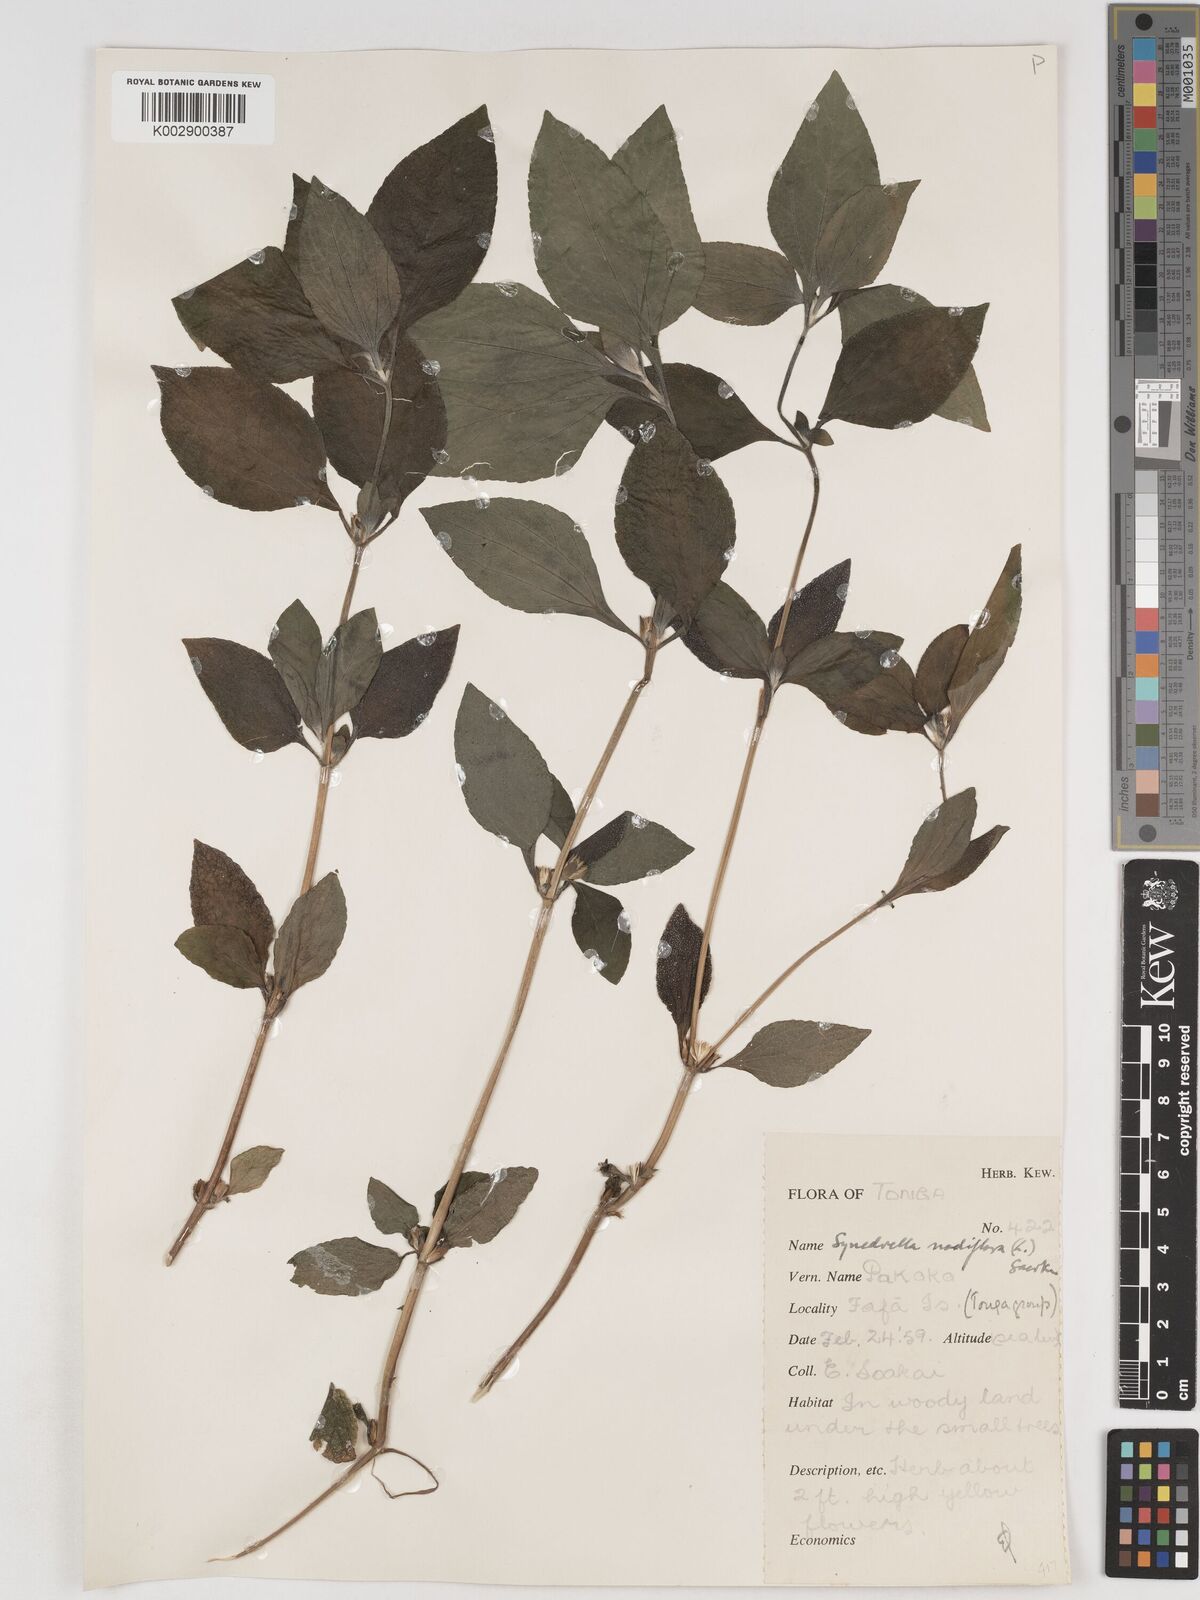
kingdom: Plantae
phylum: Tracheophyta
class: Magnoliopsida
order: Asterales
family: Asteraceae
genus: Synedrella
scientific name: Synedrella nodiflora
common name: Nodeweed
